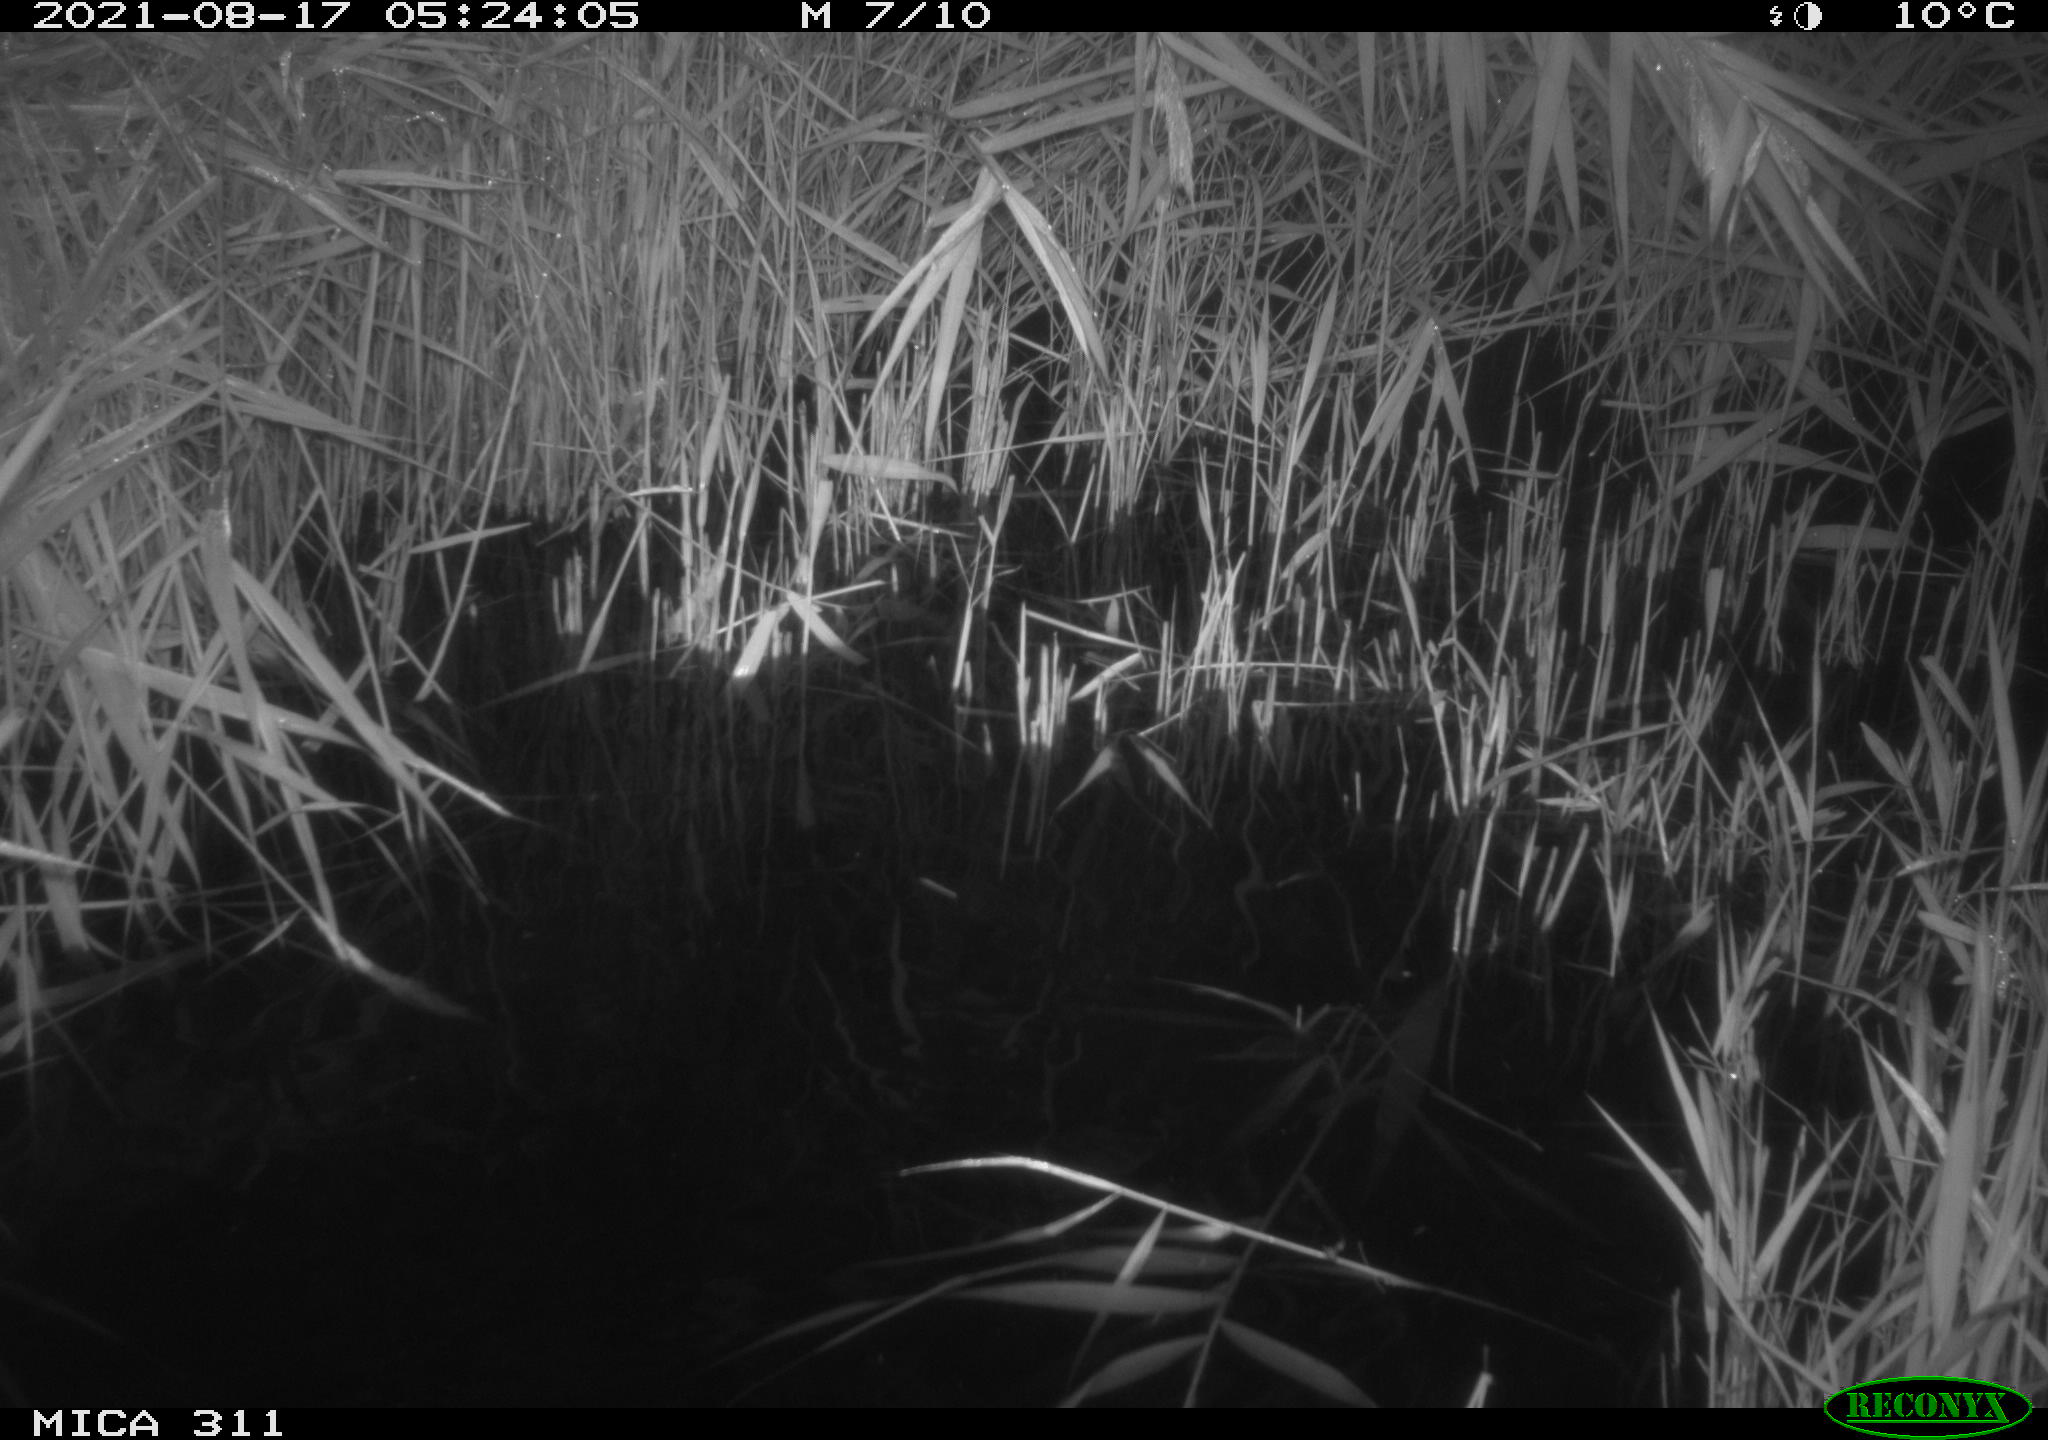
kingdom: Animalia
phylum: Chordata
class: Mammalia
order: Rodentia
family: Muridae
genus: Rattus
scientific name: Rattus norvegicus
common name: Brown rat
